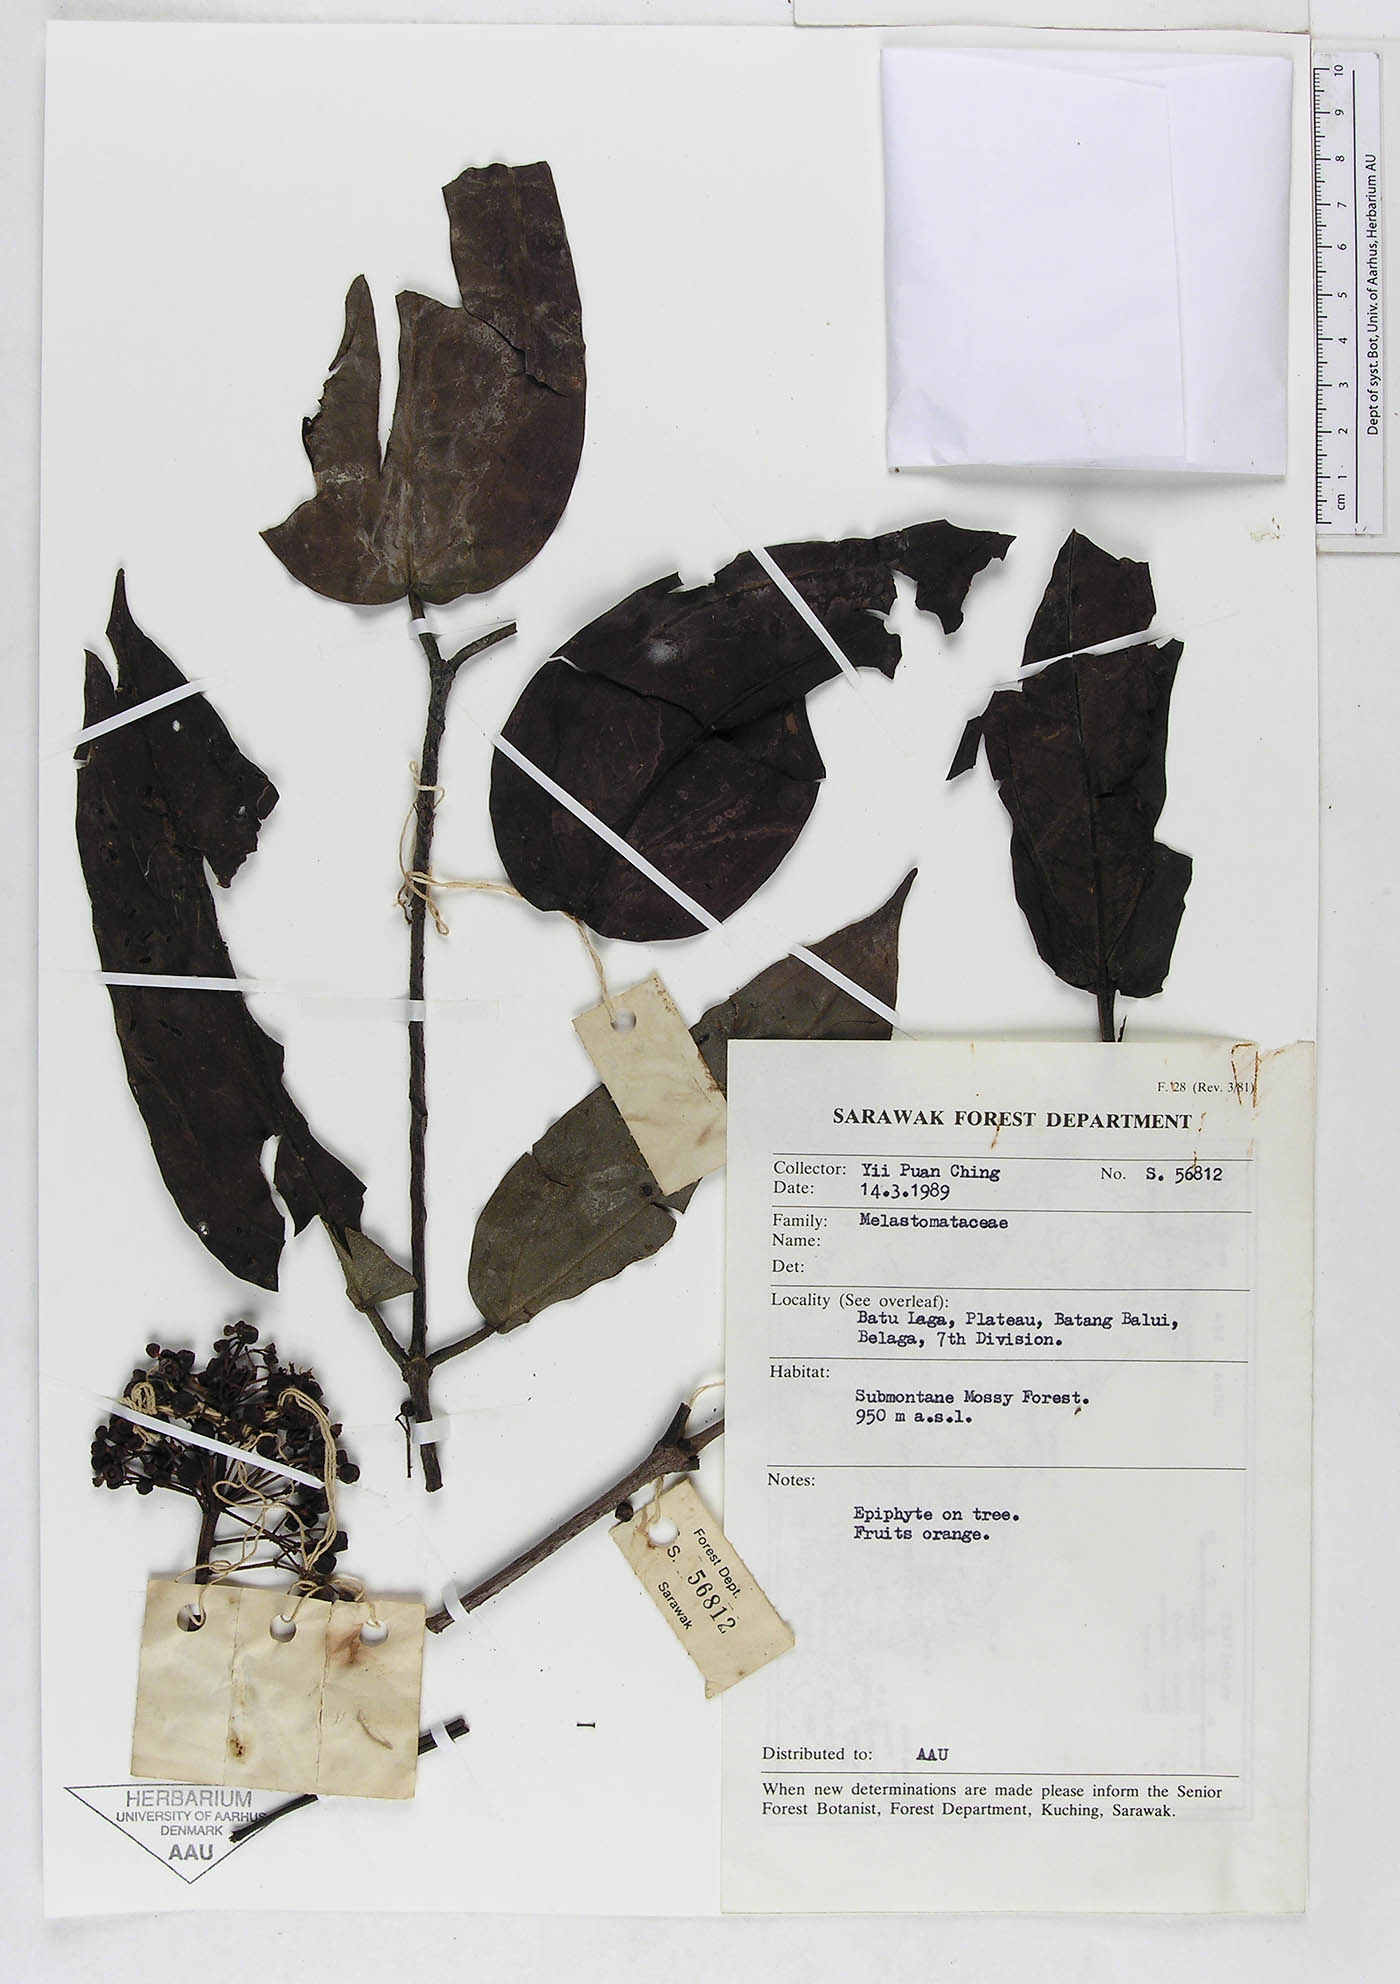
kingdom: Plantae
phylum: Tracheophyta
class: Magnoliopsida
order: Myrtales
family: Melastomataceae
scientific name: Melastomataceae
